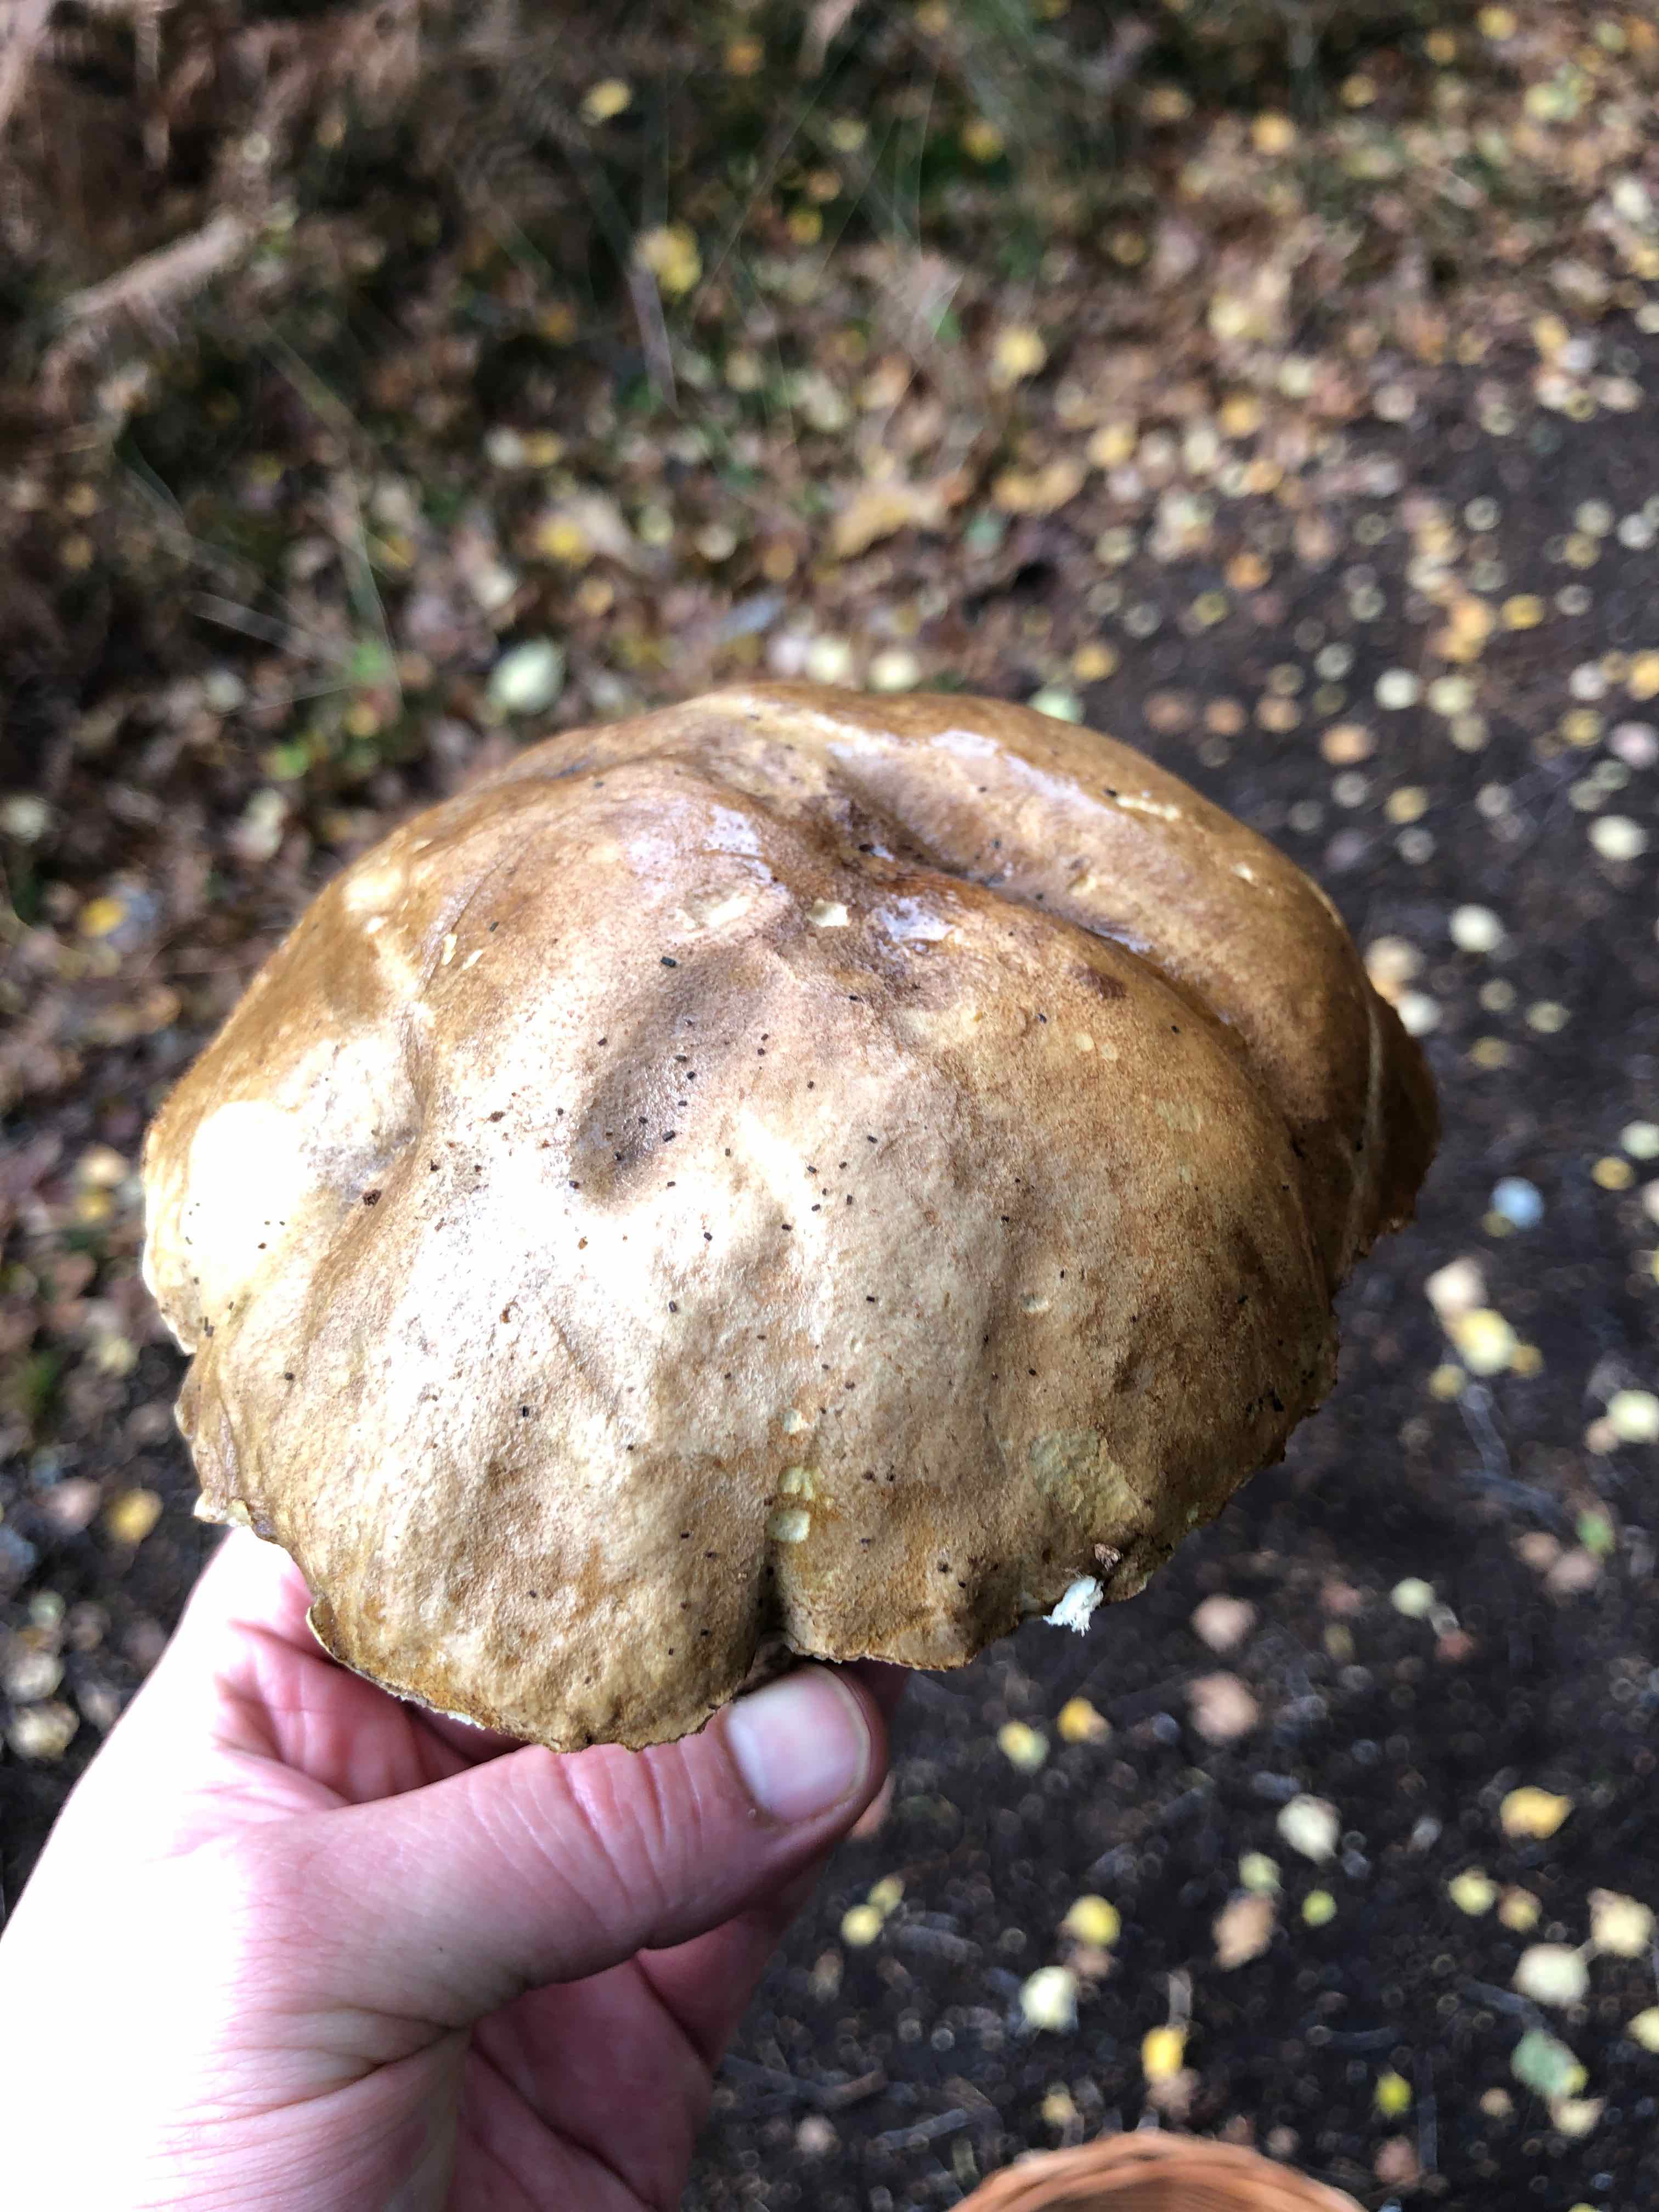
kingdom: Fungi
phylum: Basidiomycota
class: Agaricomycetes
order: Boletales
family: Boletaceae
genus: Leccinum
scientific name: Leccinum scabrum
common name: brun skælrørhat
